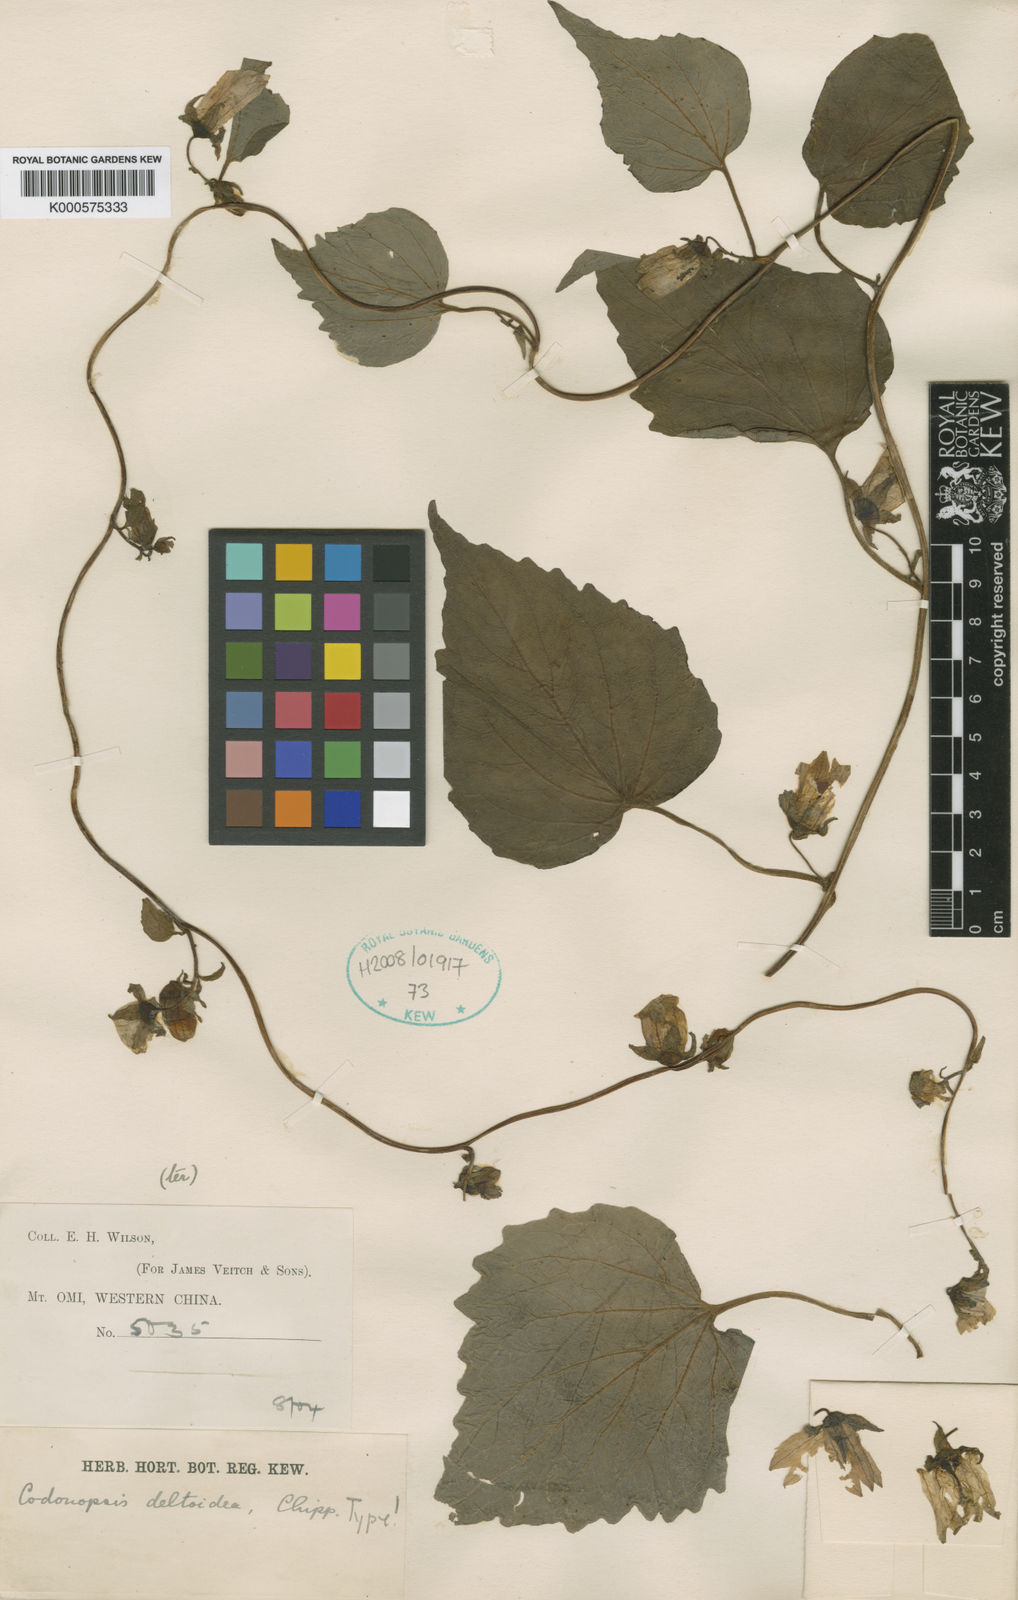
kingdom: Plantae
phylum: Tracheophyta
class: Magnoliopsida
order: Asterales
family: Campanulaceae
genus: Codonopsis
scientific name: Codonopsis deltoidea
